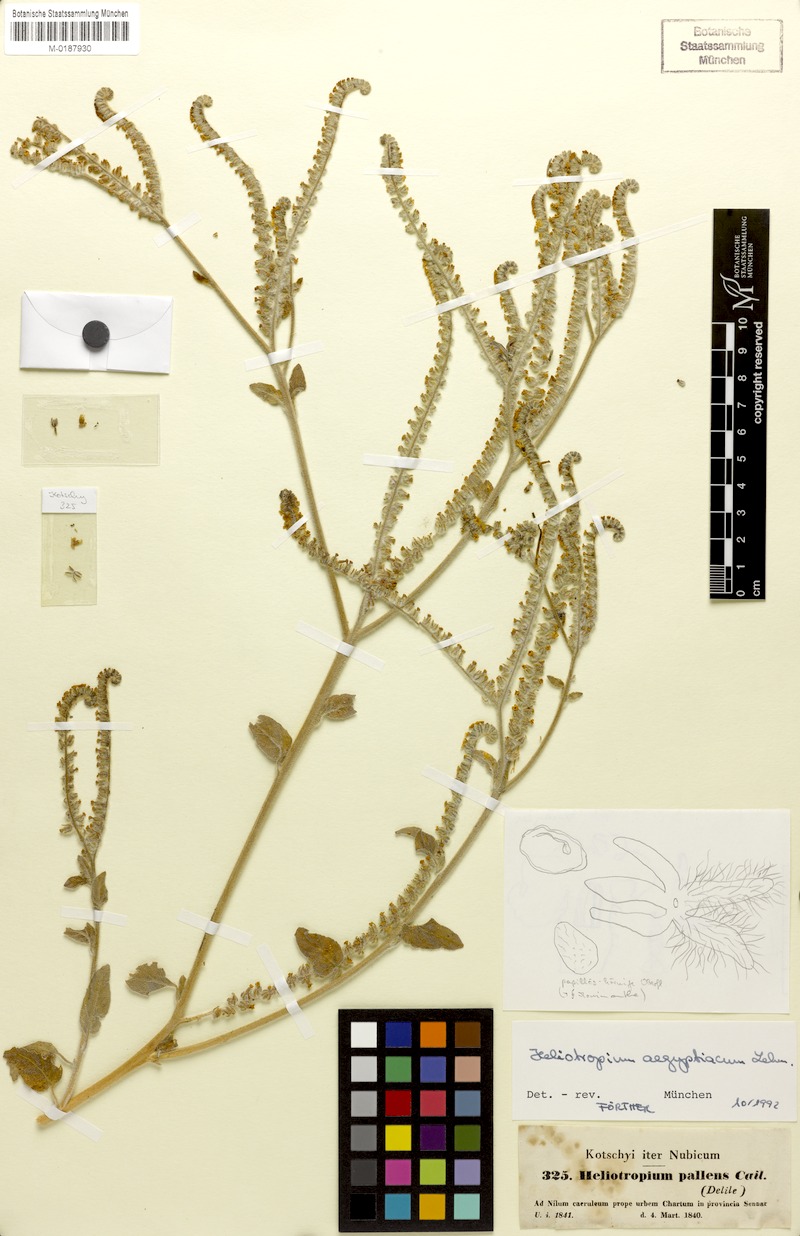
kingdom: Plantae
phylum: Tracheophyta
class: Magnoliopsida
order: Boraginales
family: Heliotropiaceae
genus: Heliotropium
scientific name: Heliotropium aegyptiacum
